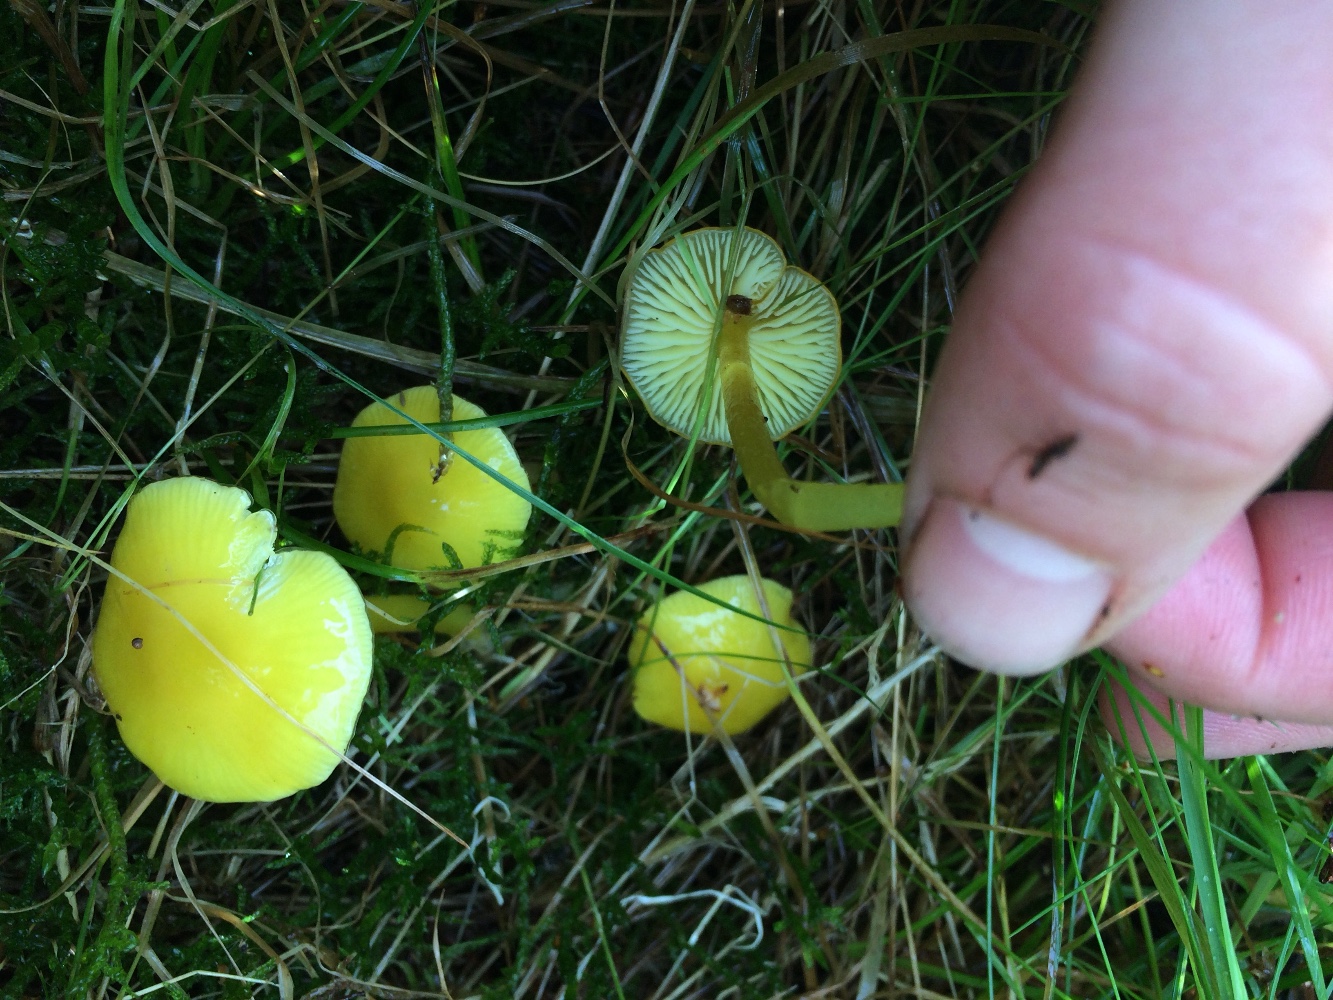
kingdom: Fungi
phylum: Basidiomycota
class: Agaricomycetes
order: Agaricales
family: Hygrophoraceae
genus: Hygrocybe
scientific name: Hygrocybe chlorophana
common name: gul vokshat
